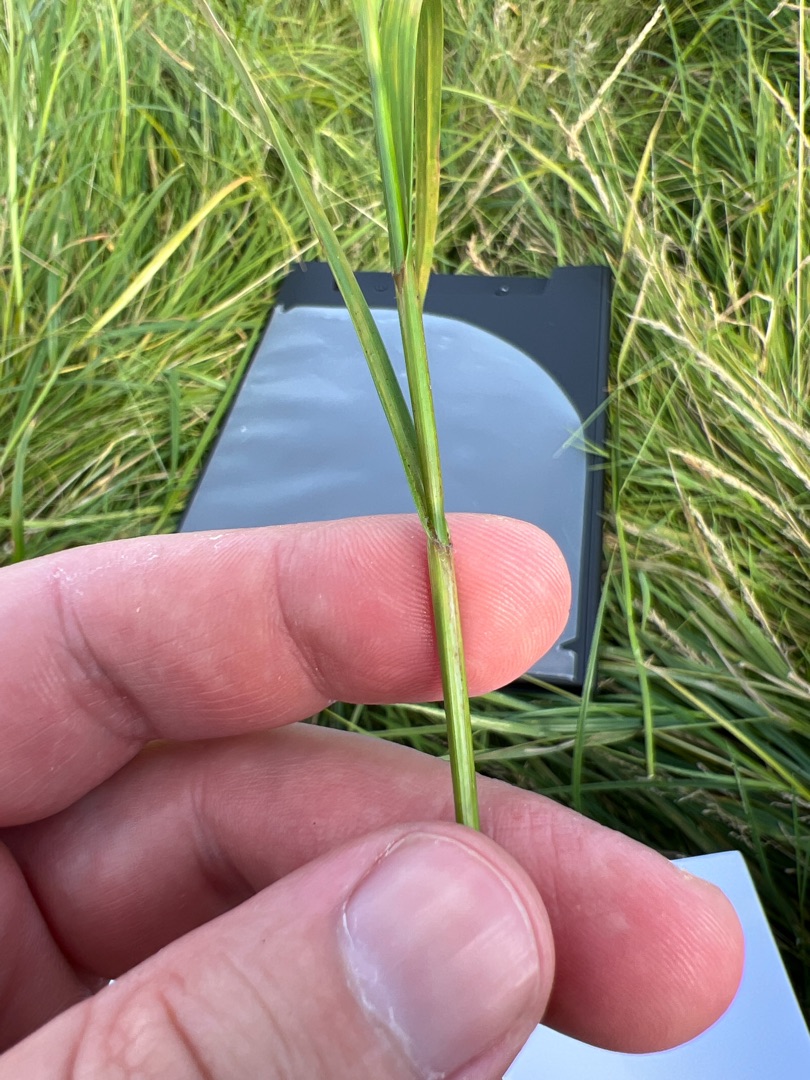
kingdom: Plantae
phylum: Tracheophyta
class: Liliopsida
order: Poales
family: Cyperaceae
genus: Carex
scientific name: Carex hirta
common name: Håret star
